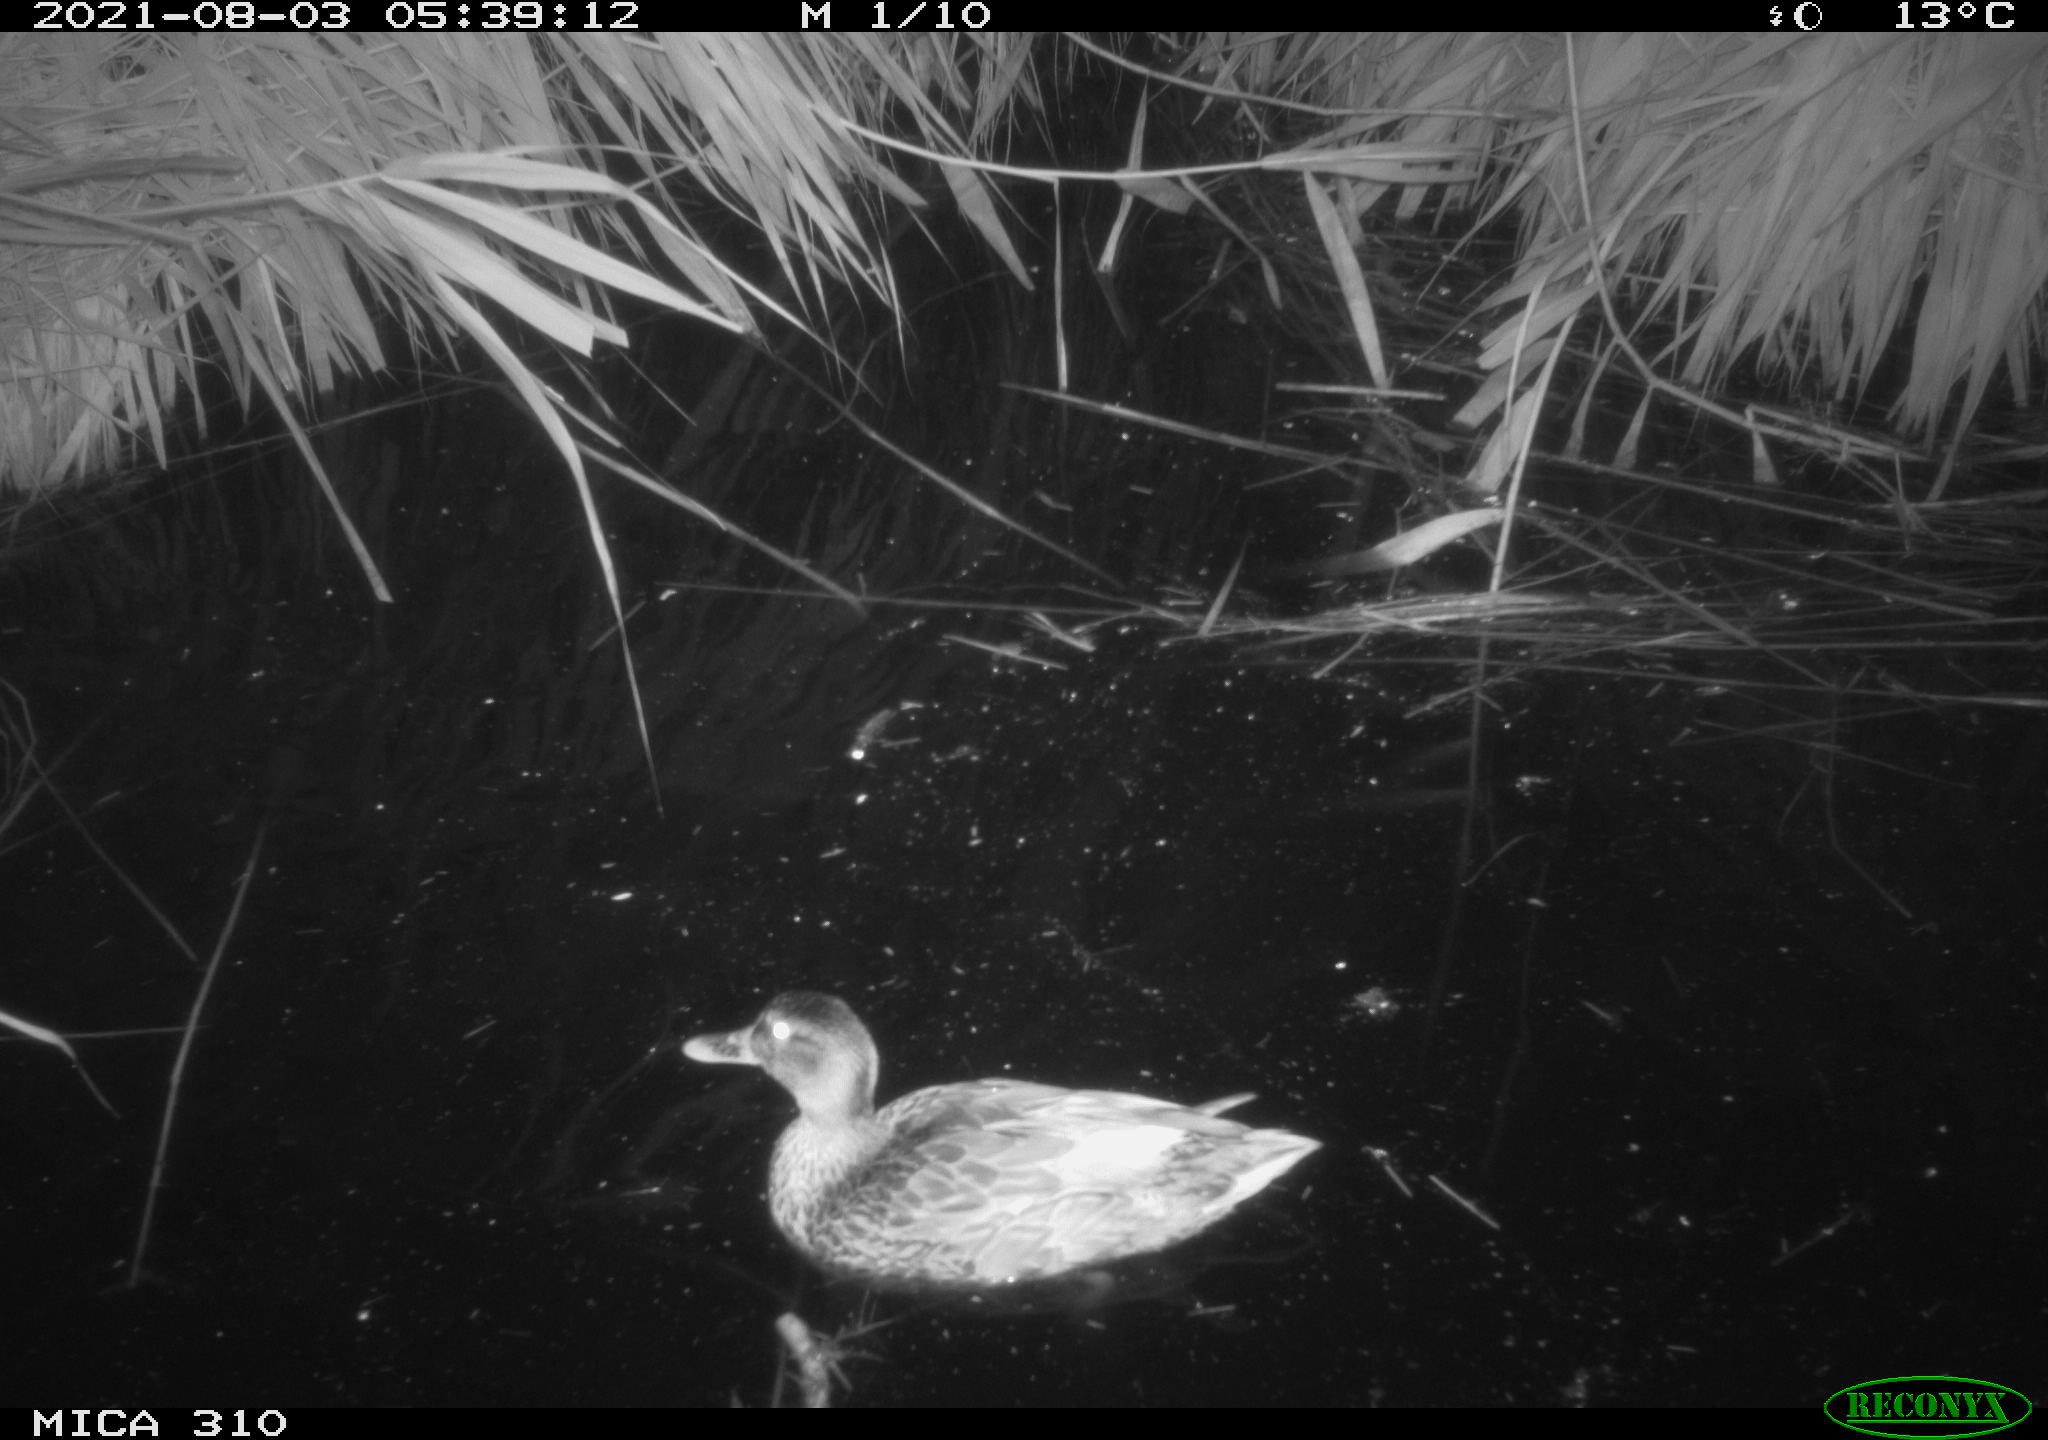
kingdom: Animalia
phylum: Chordata
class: Aves
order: Anseriformes
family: Anatidae
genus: Mareca
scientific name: Mareca strepera
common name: Gadwall
